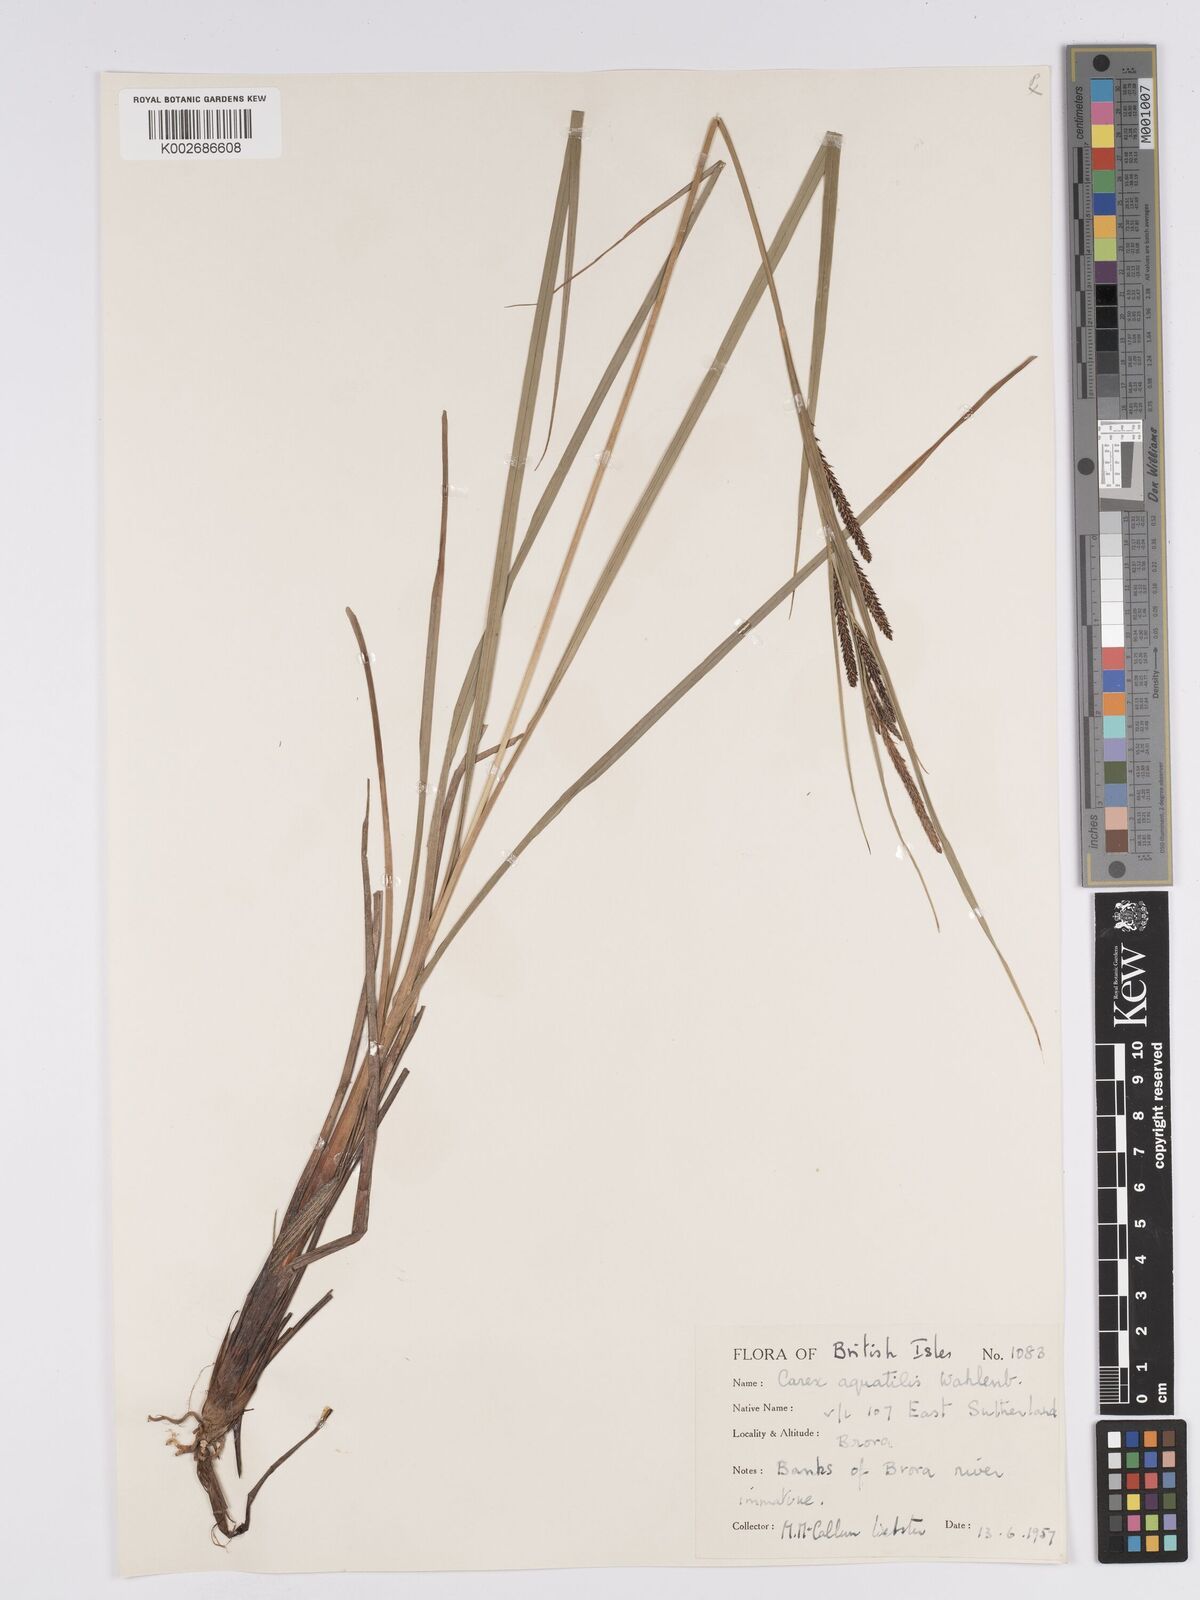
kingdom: Plantae
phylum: Tracheophyta
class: Liliopsida
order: Poales
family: Cyperaceae
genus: Carex
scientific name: Carex aquatilis
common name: Water sedge
